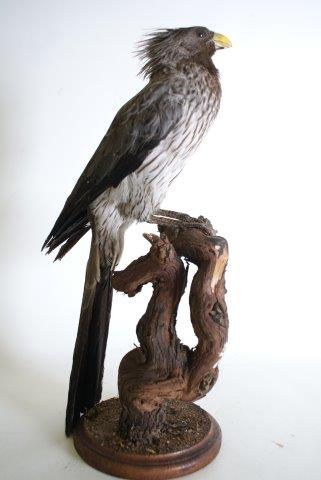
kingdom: Animalia
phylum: Chordata
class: Aves
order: Musophagiformes
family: Musophagidae
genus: Crinifer
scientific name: Crinifer piscator
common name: Western plantain-eater
